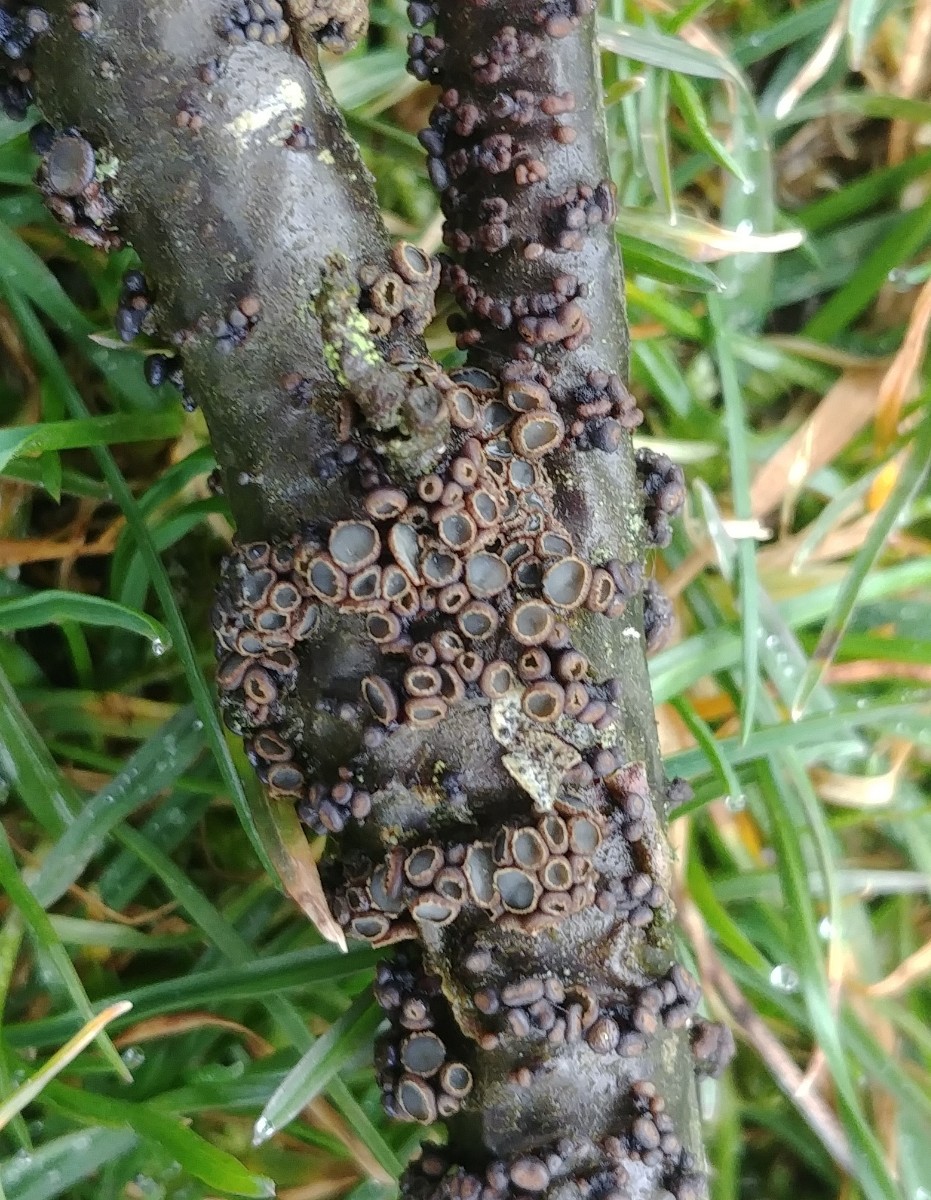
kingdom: Fungi
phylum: Ascomycota
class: Leotiomycetes
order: Helotiales
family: Godroniaceae
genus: Godronia
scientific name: Godronia ribis
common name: ribs-urneskive
